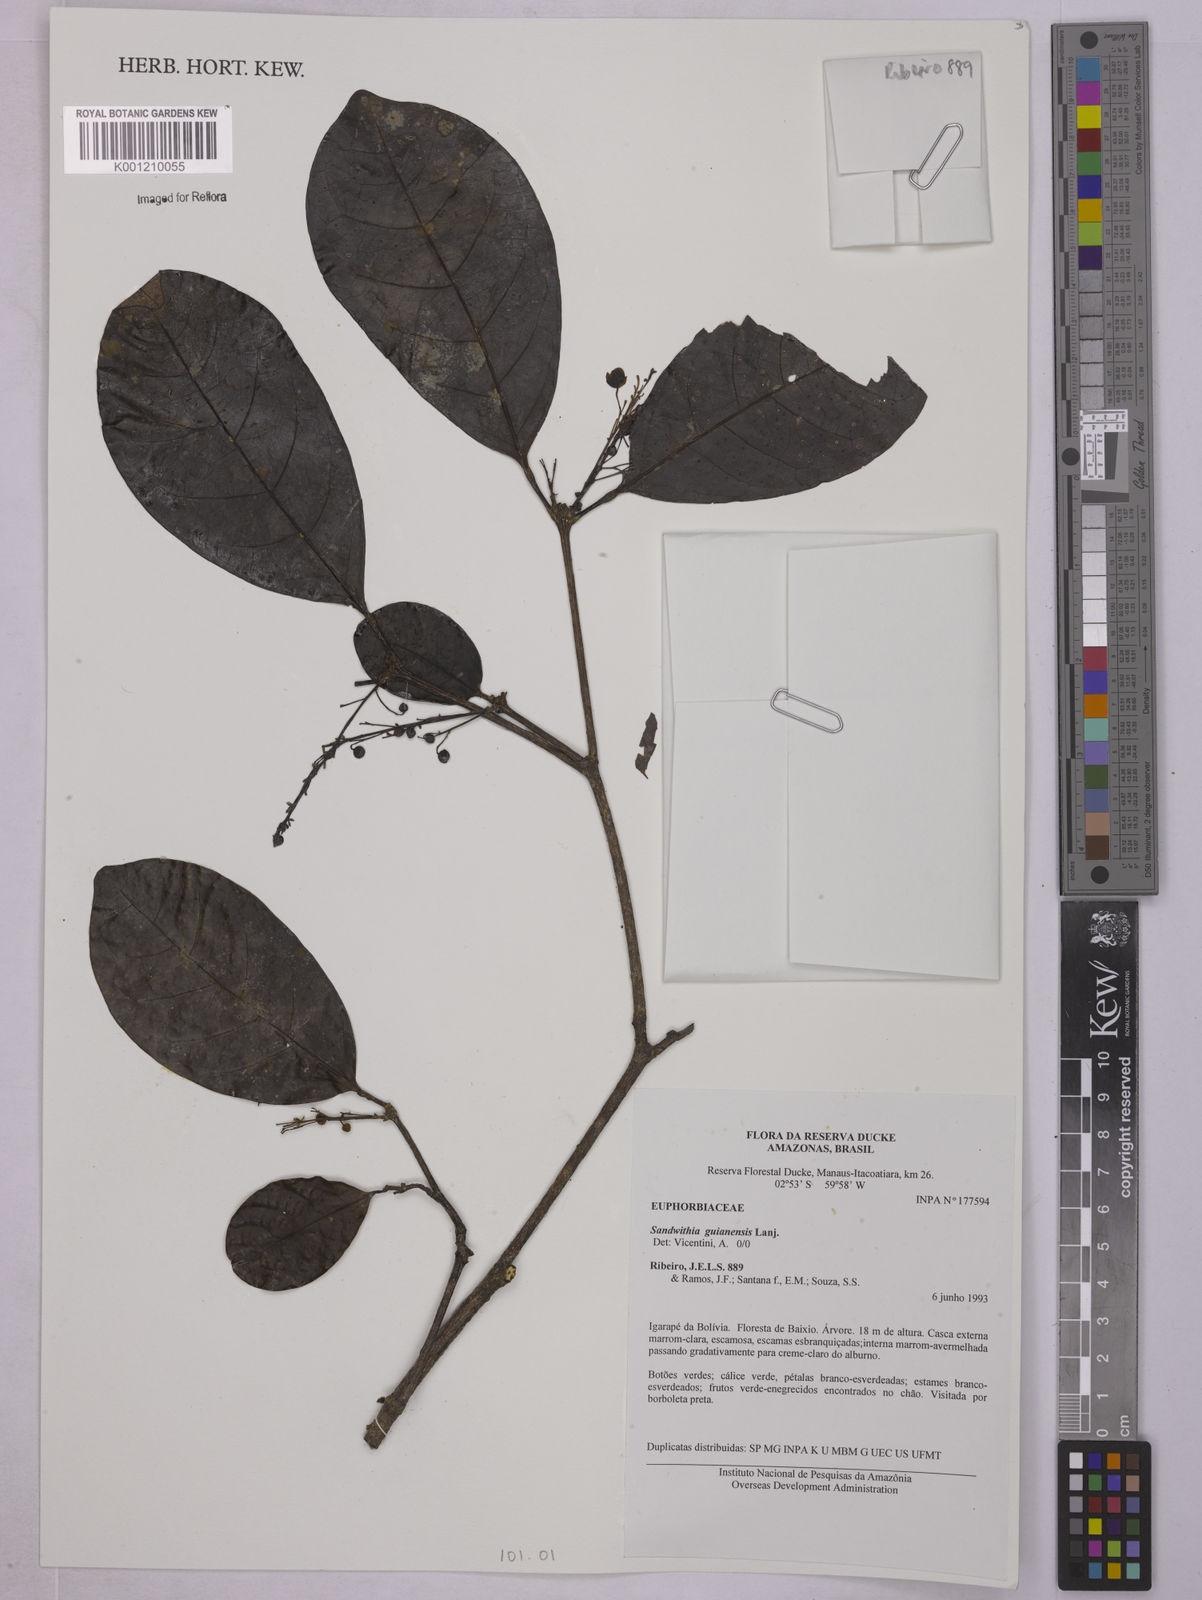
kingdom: Plantae
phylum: Tracheophyta
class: Magnoliopsida
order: Malpighiales
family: Euphorbiaceae
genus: Sagotia
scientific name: Sagotia
